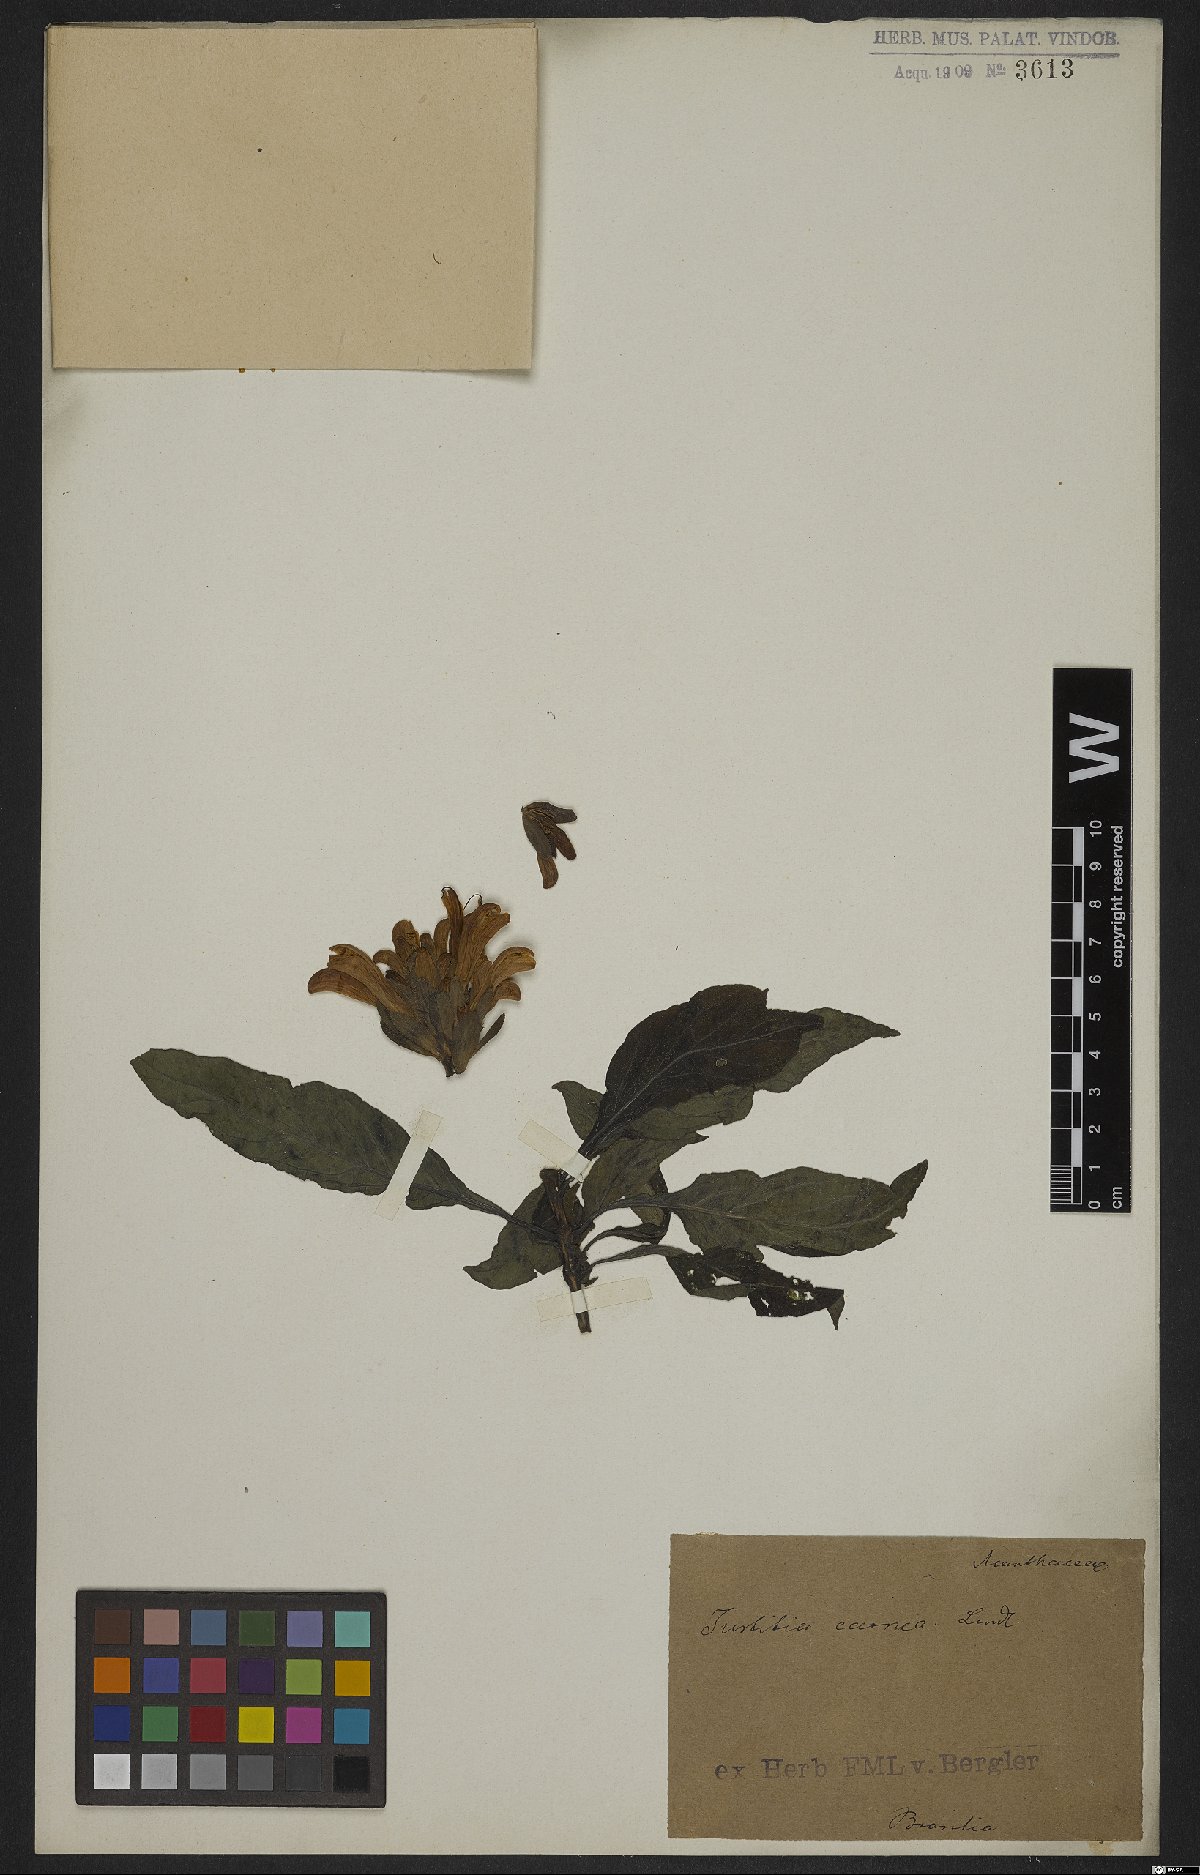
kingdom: Plantae
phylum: Tracheophyta
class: Magnoliopsida
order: Lamiales
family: Acanthaceae
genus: Dianthera
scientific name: Dianthera candicans
